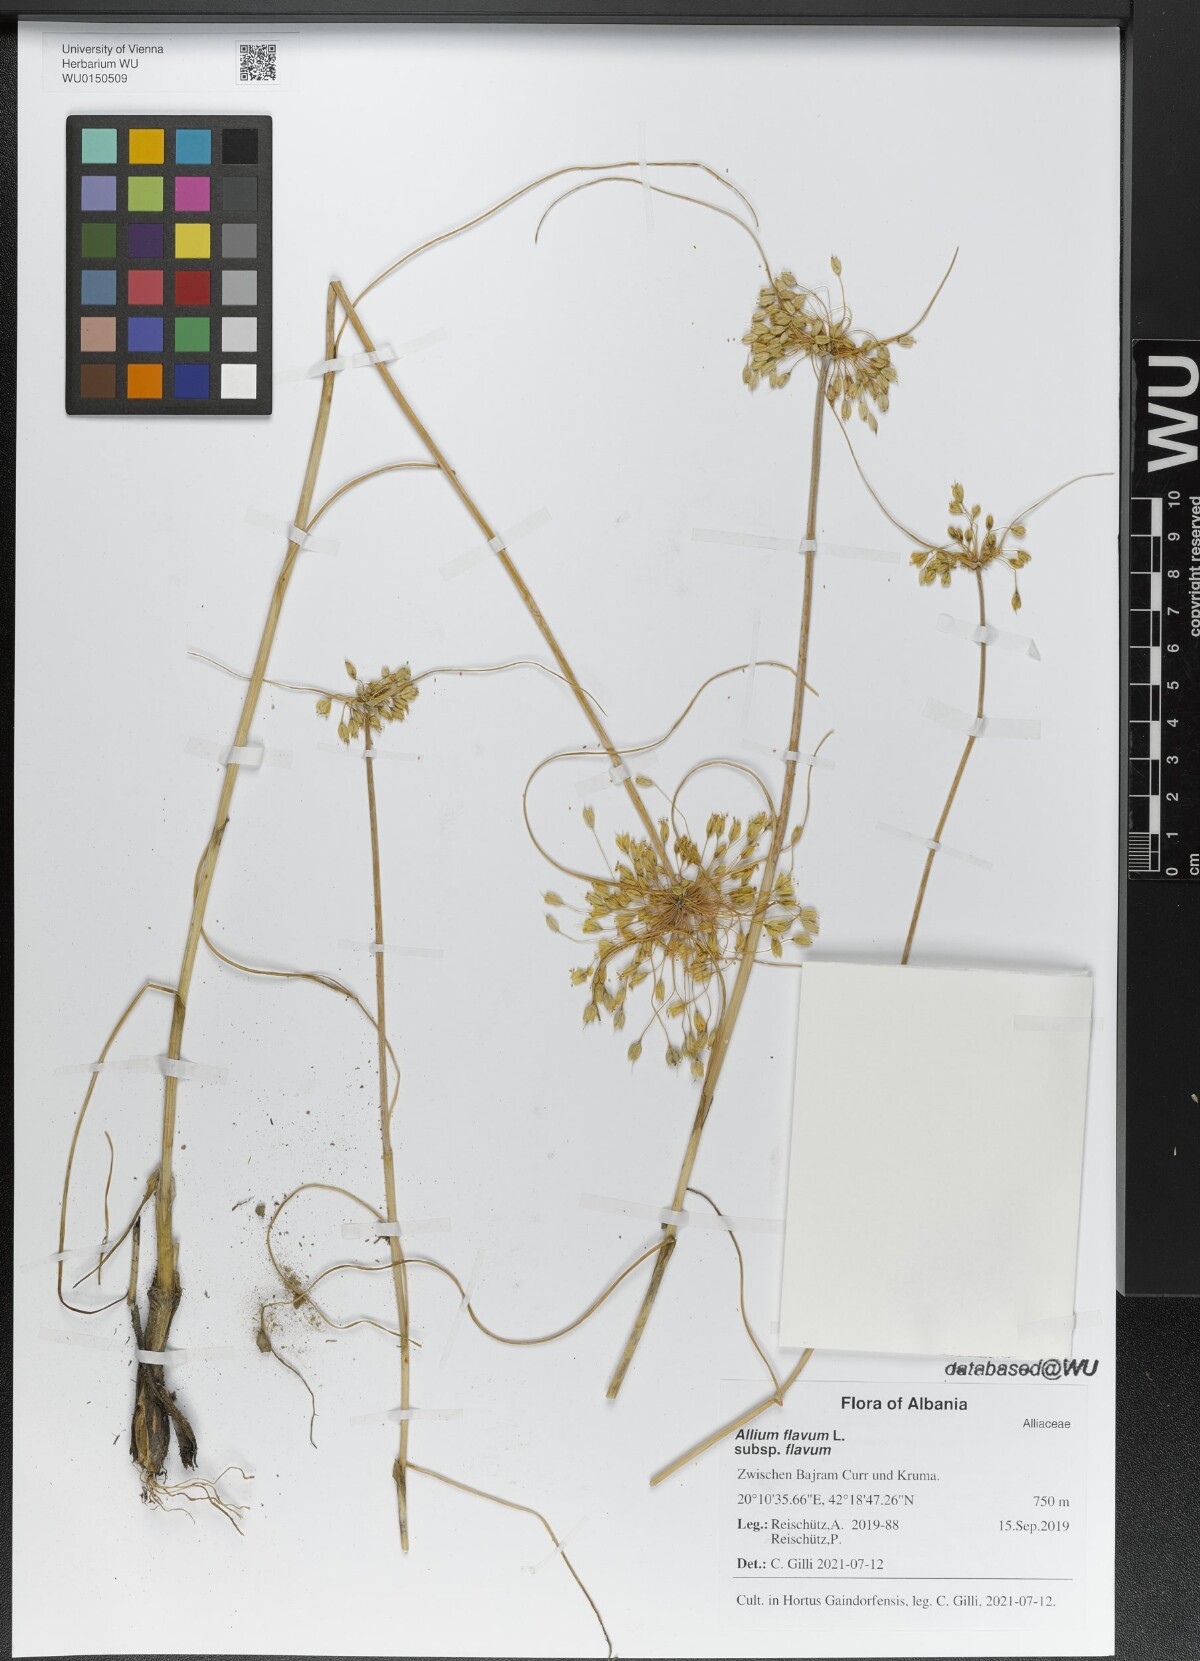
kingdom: Plantae
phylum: Tracheophyta
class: Liliopsida
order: Asparagales
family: Amaryllidaceae
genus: Allium
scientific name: Allium flavum
